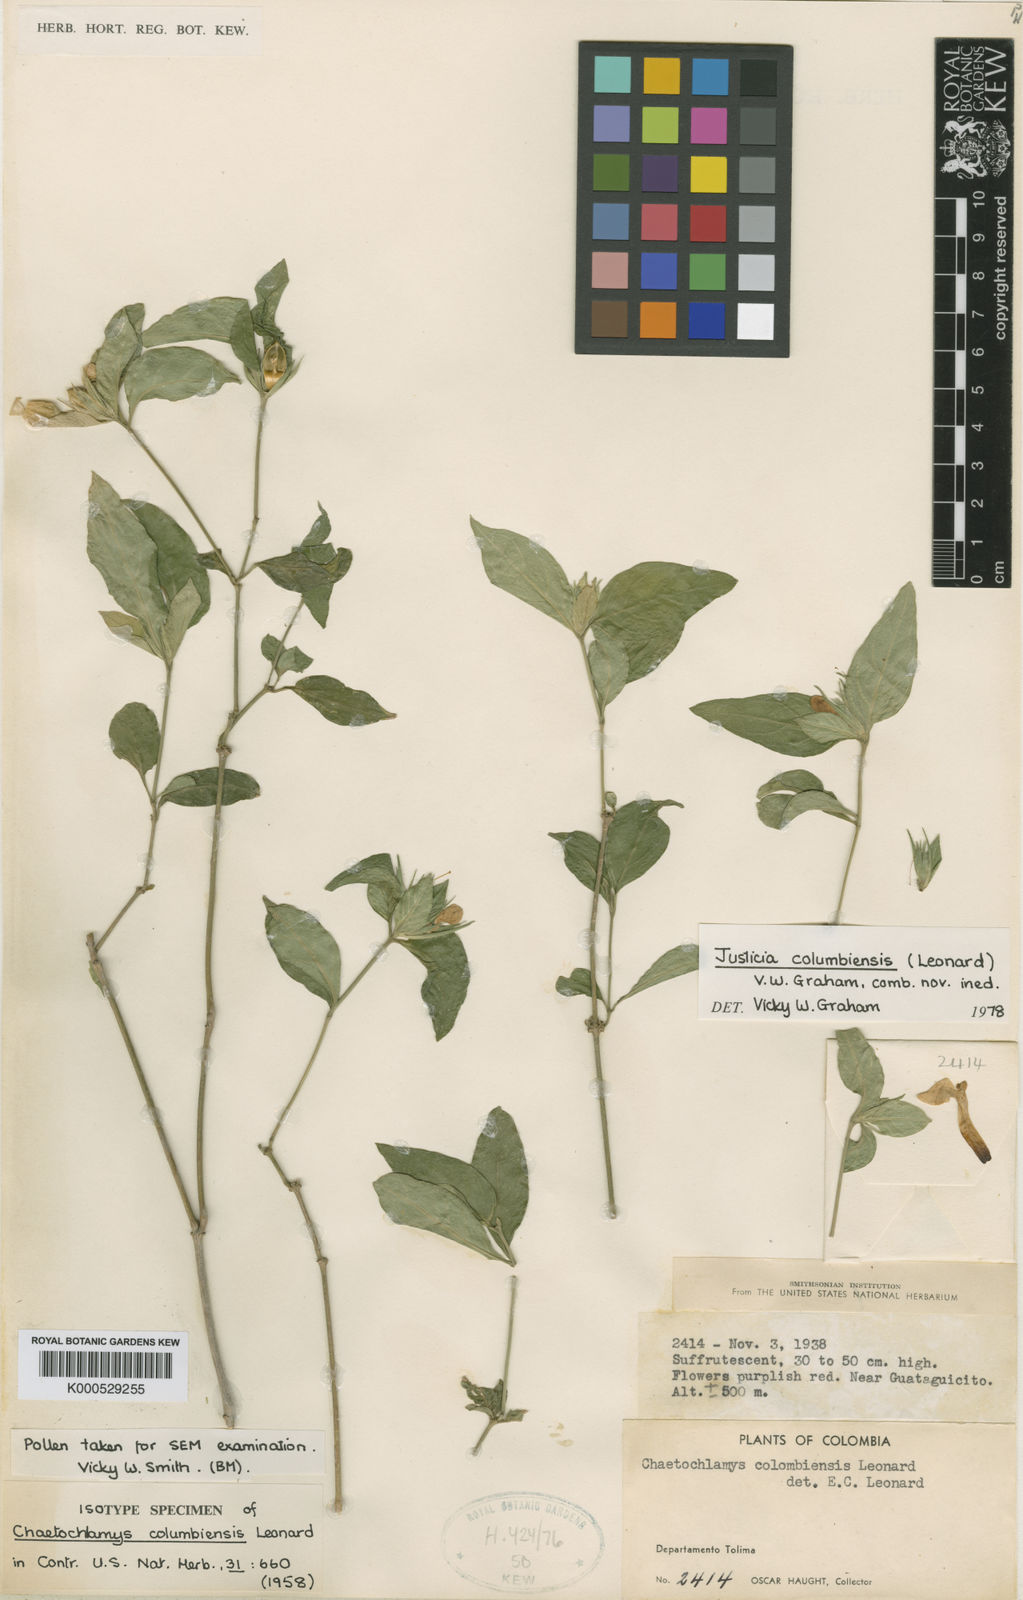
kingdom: Plantae
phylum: Tracheophyta
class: Magnoliopsida
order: Lamiales
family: Acanthaceae
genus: Justicia
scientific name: Justicia columbiensis
